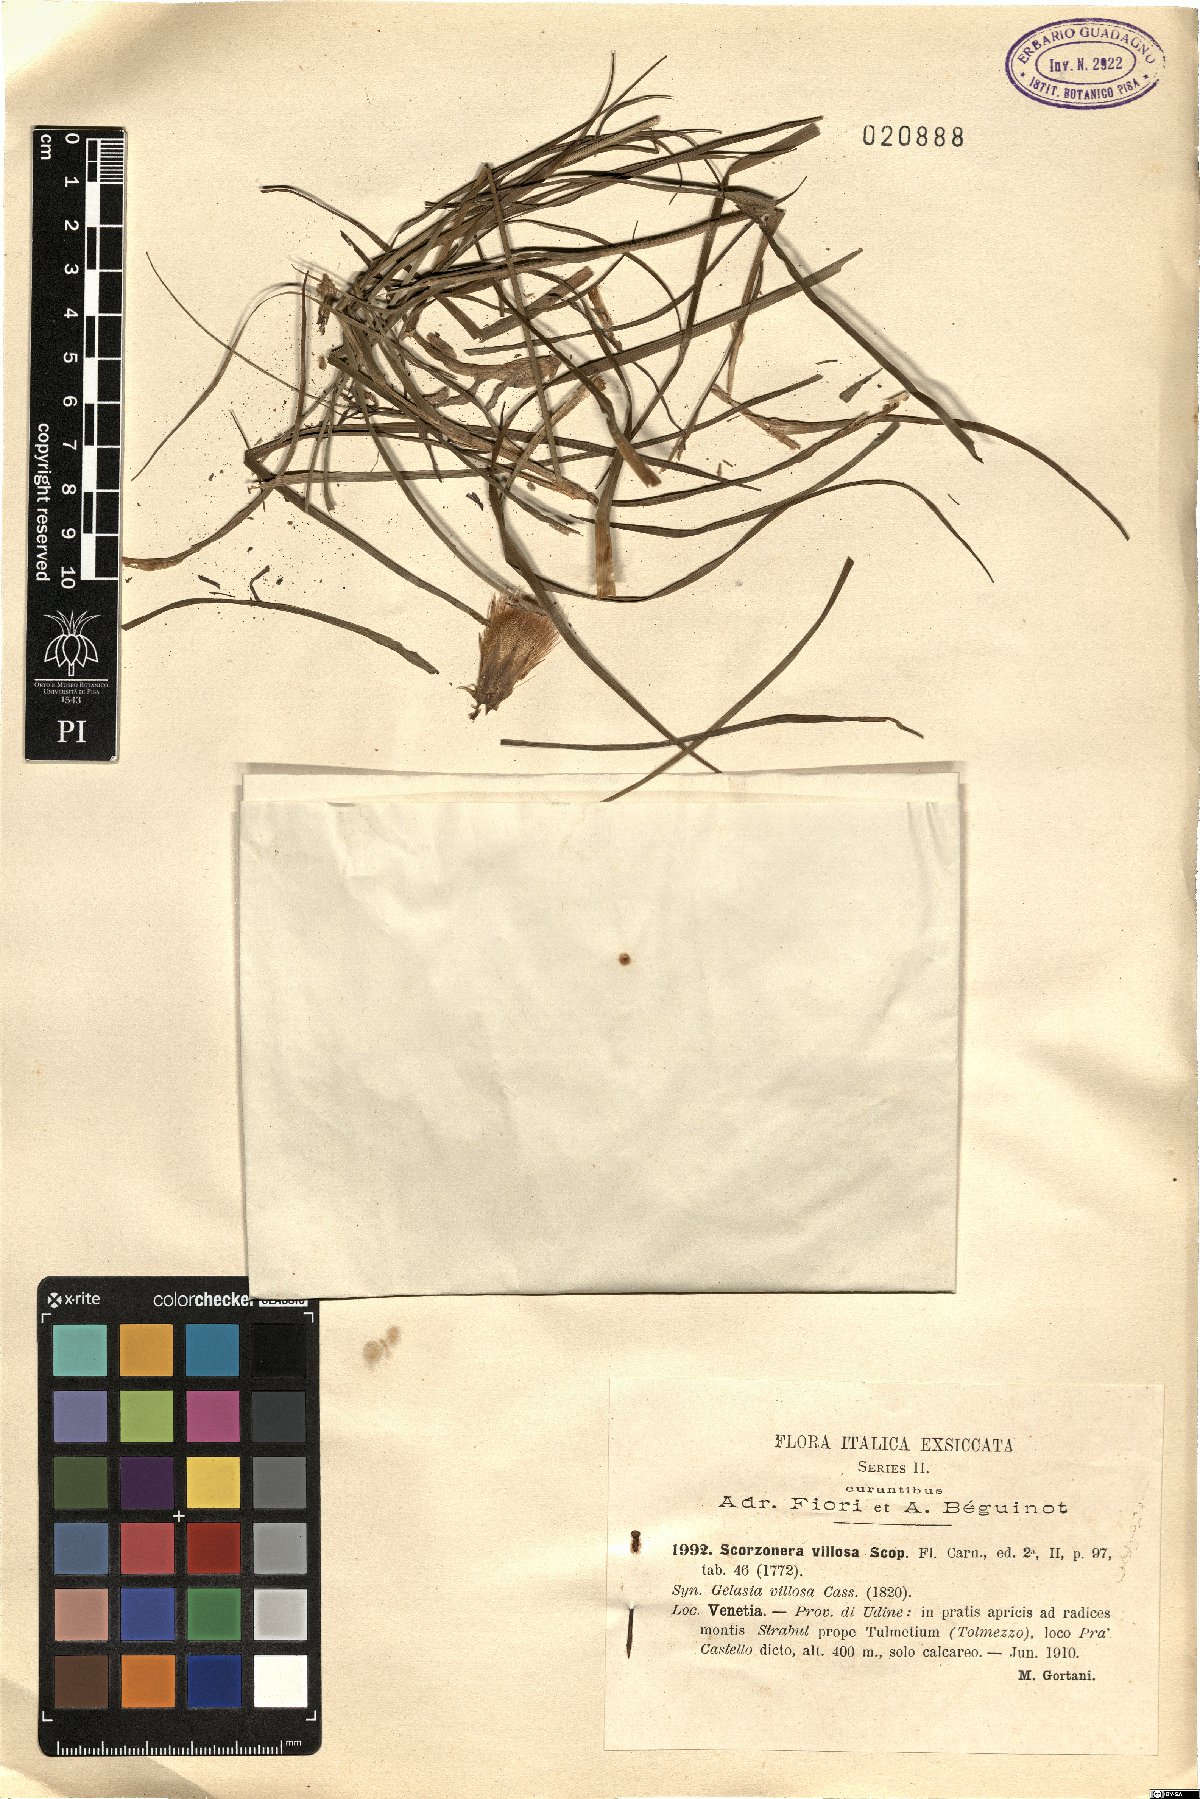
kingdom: Plantae
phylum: Tracheophyta
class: Magnoliopsida
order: Asterales
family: Asteraceae
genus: Gelasia
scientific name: Gelasia villosa
